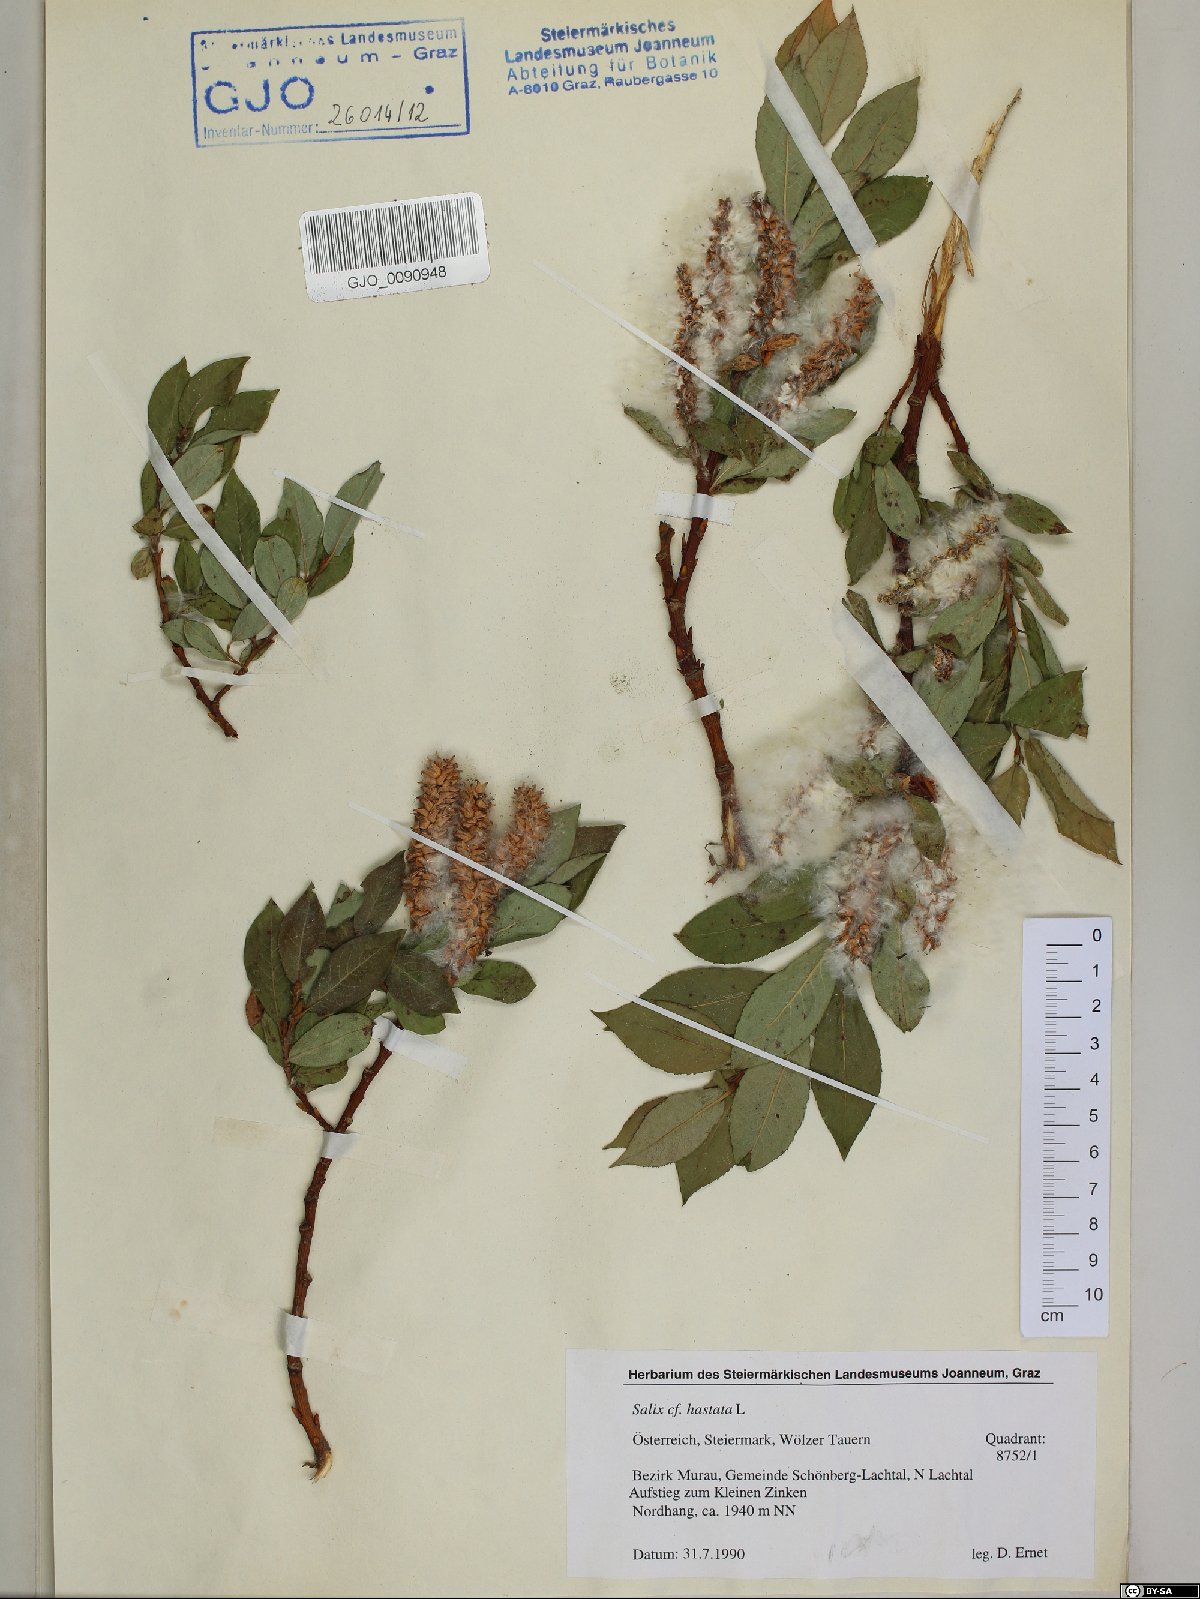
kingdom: Plantae
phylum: Tracheophyta
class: Magnoliopsida
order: Malpighiales
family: Salicaceae
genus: Salix
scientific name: Salix hastata
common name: Halberd willow
